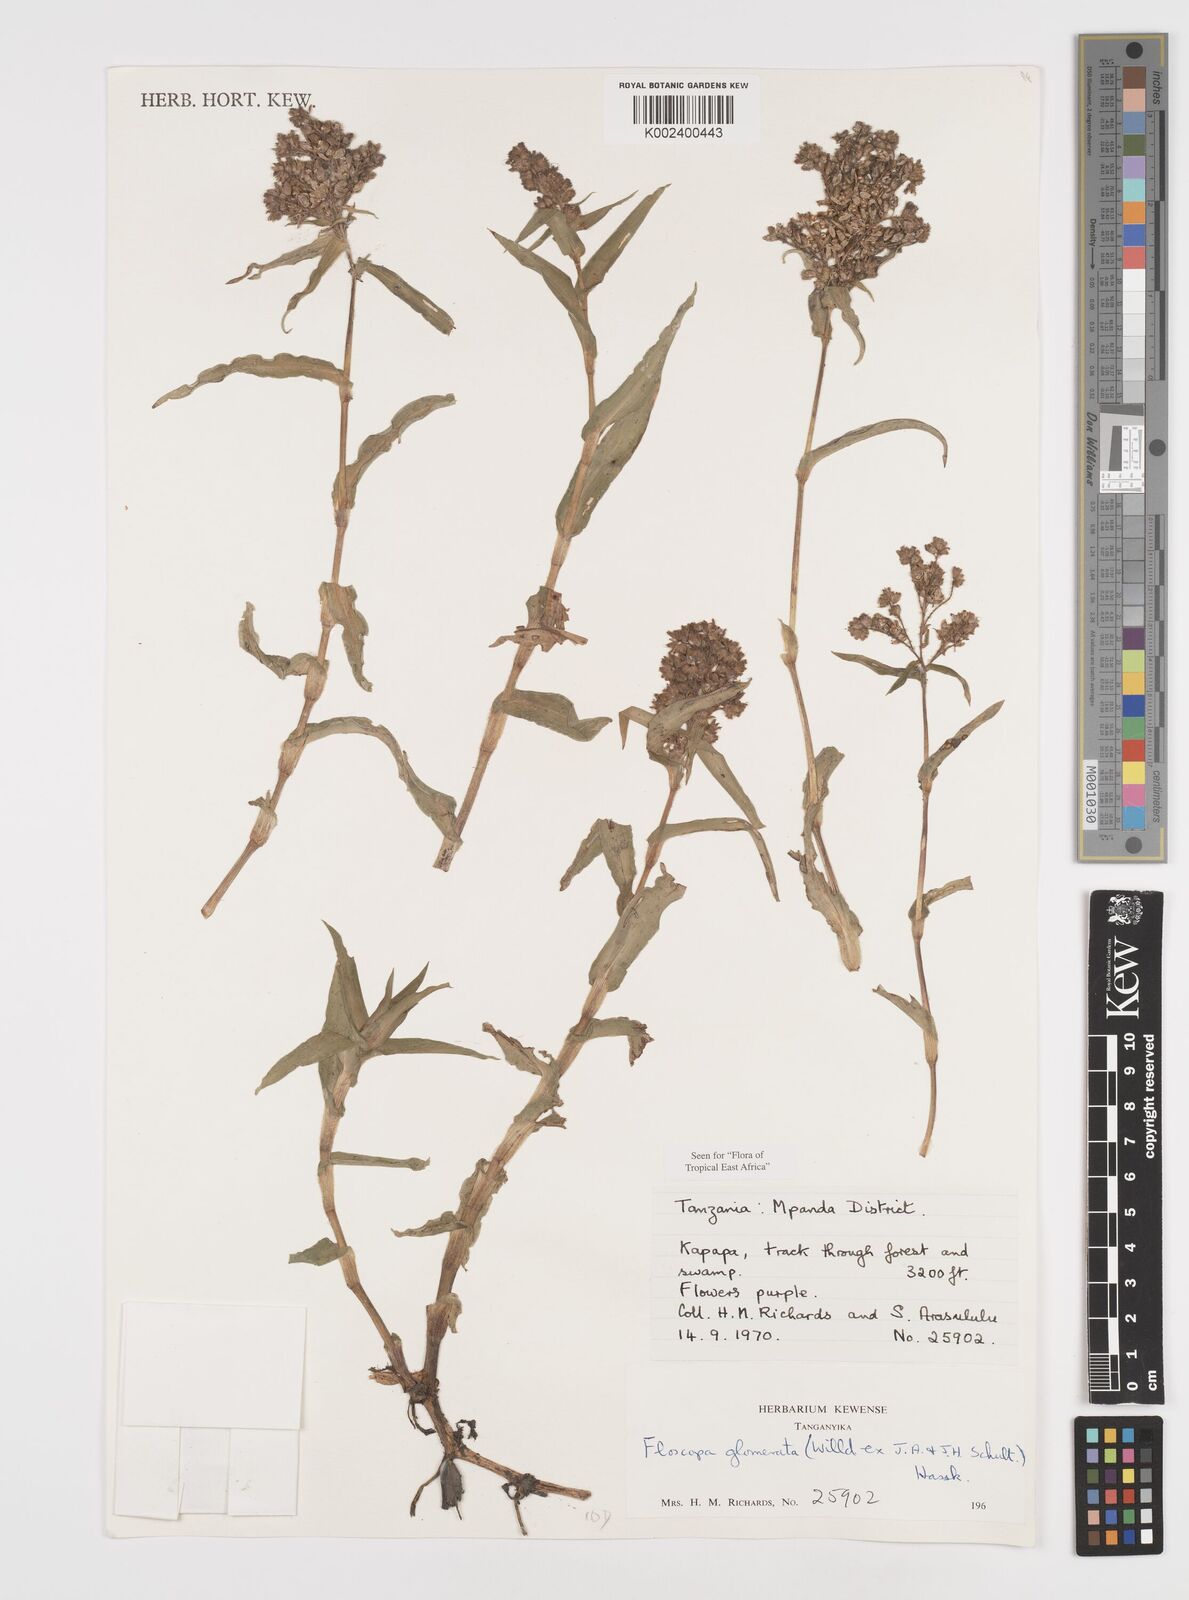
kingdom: Plantae
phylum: Tracheophyta
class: Liliopsida
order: Commelinales
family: Commelinaceae
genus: Floscopa
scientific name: Floscopa glomerata
